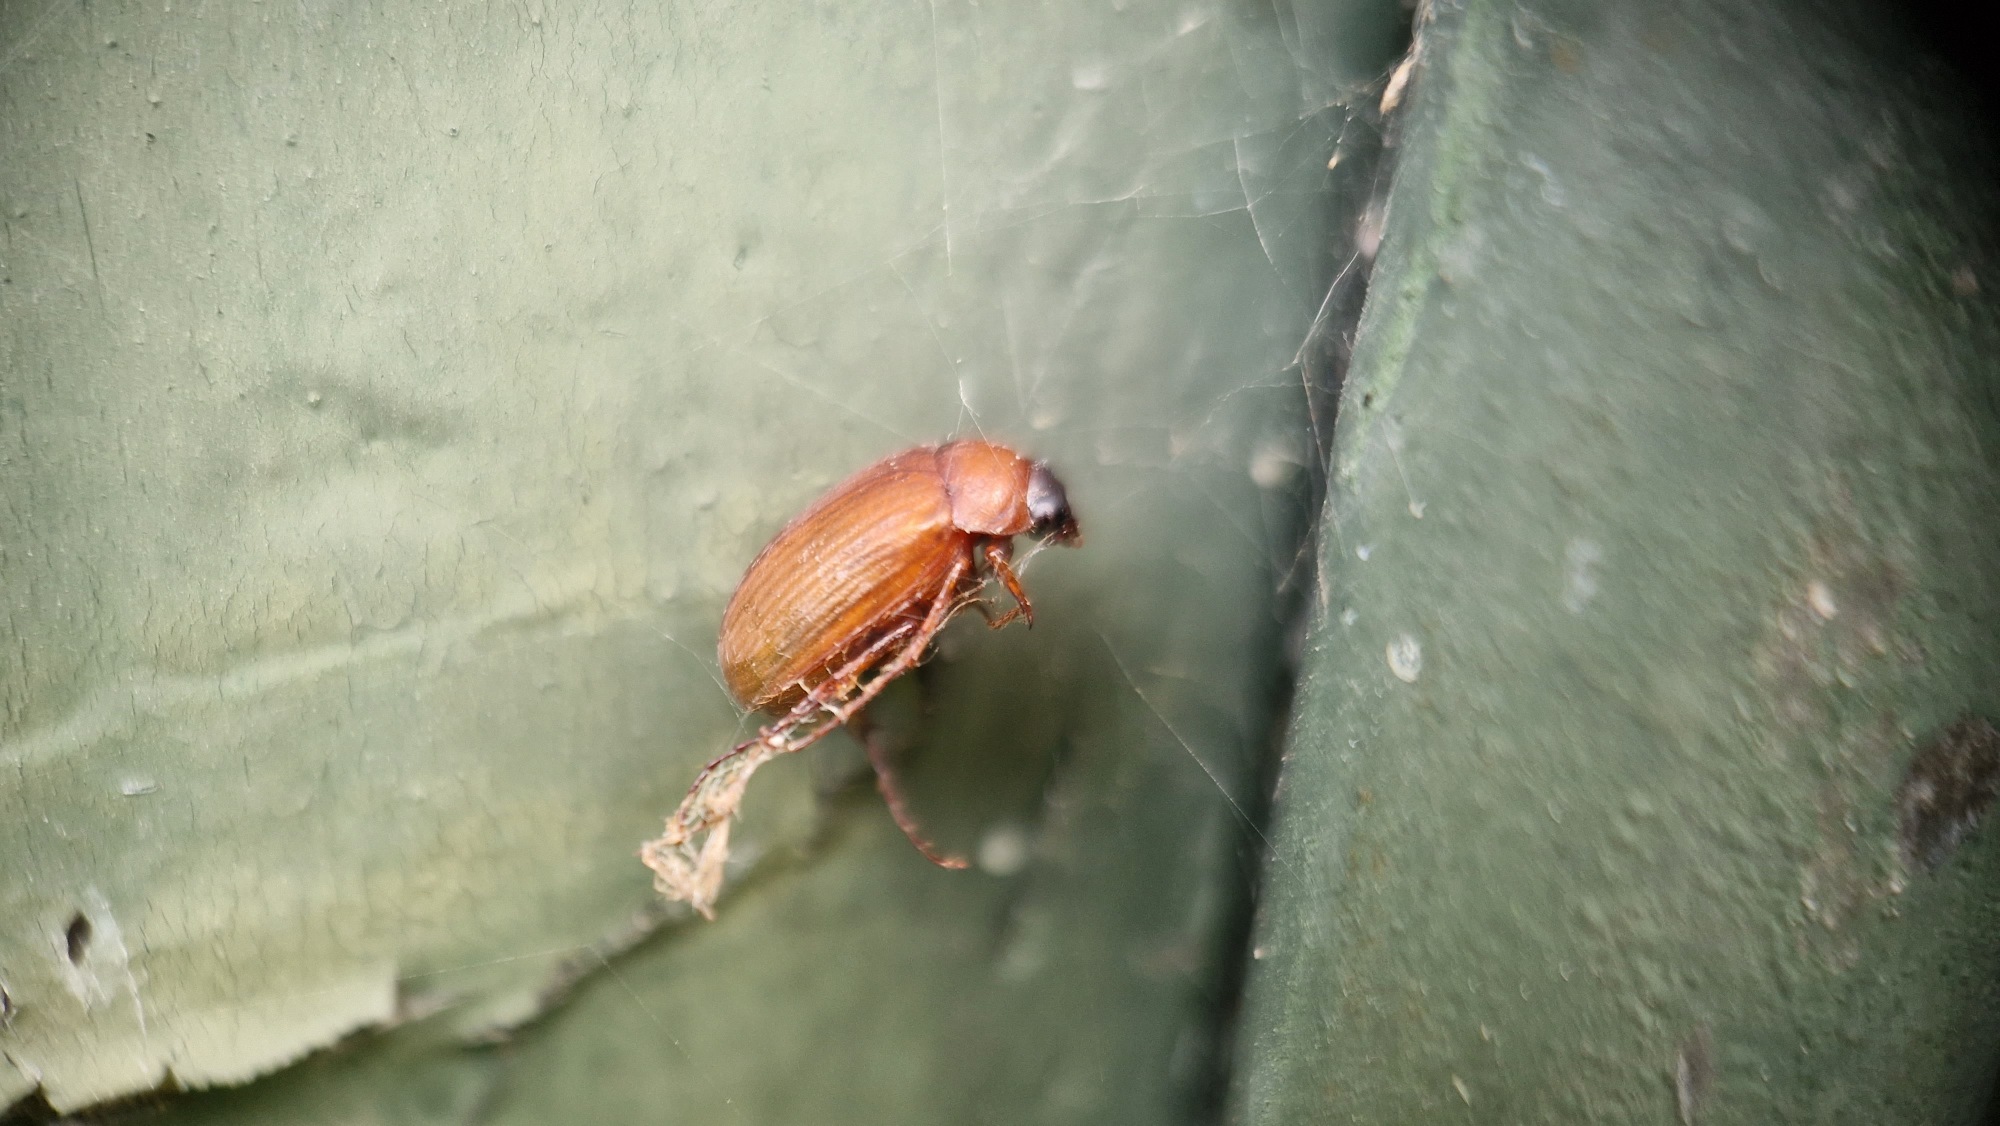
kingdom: Animalia
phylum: Arthropoda
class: Insecta
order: Coleoptera
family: Scarabaeidae
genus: Serica
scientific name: Serica brunnea
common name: Natoldenborre
